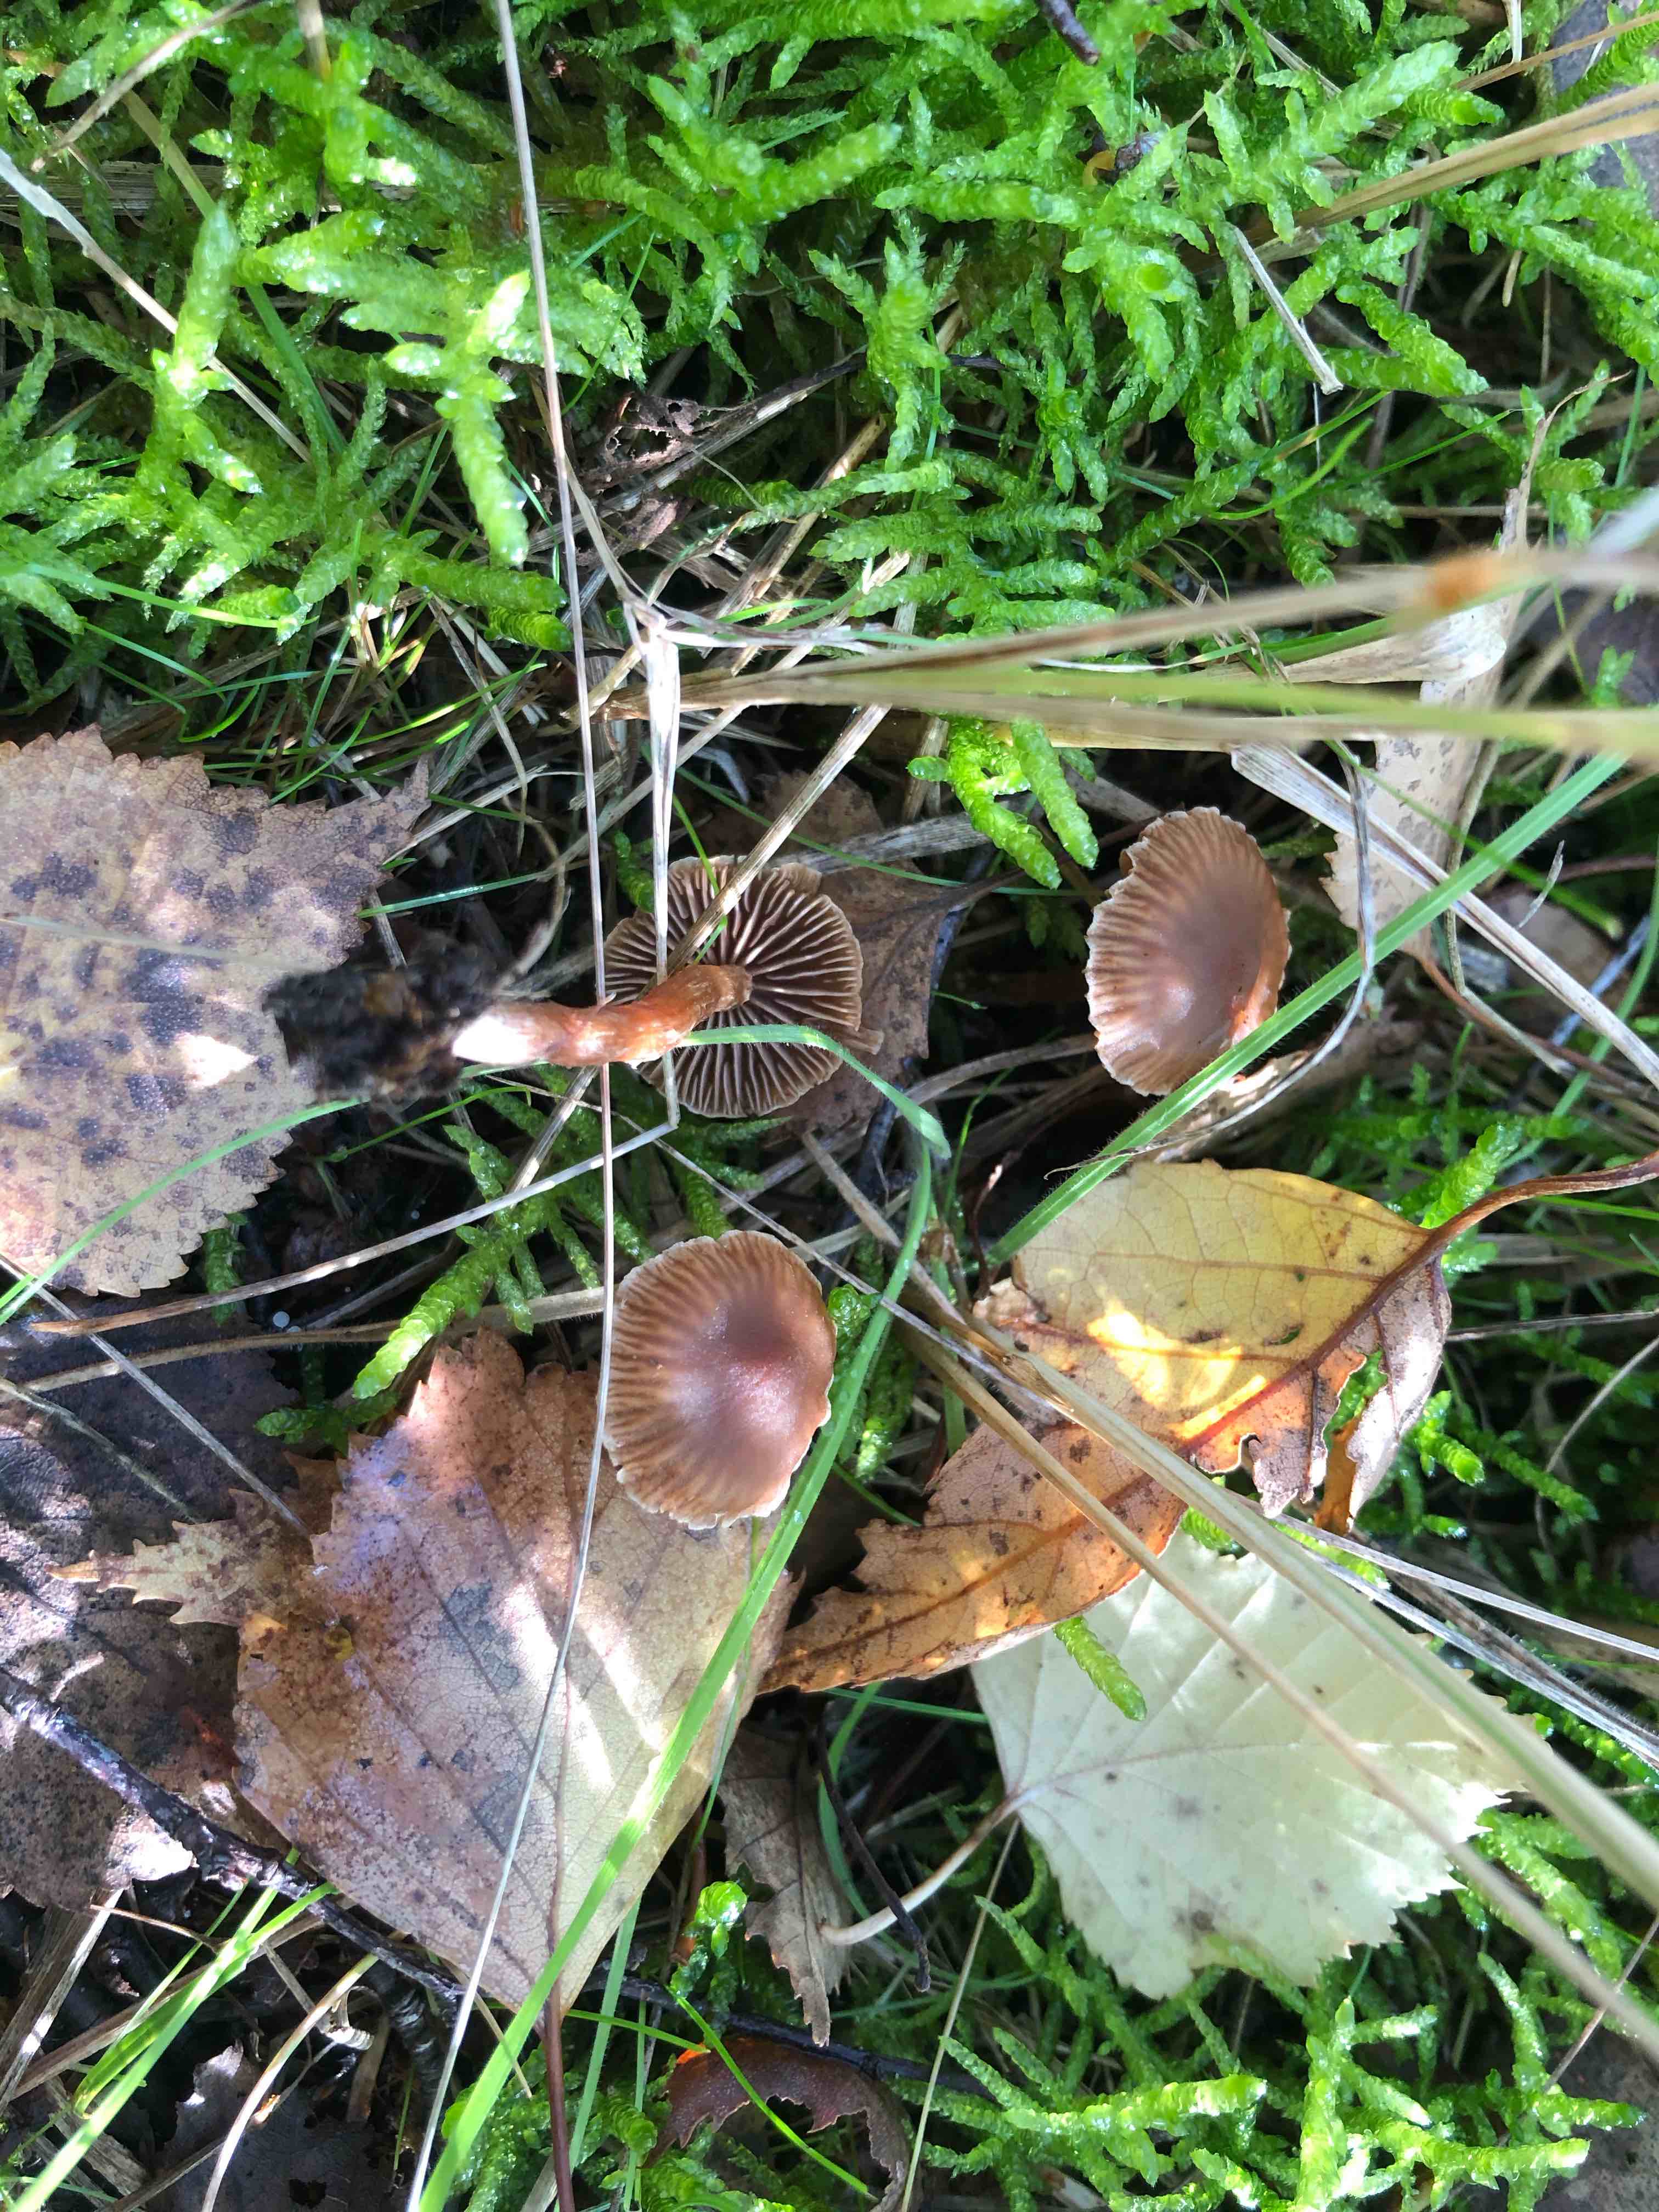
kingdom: Fungi
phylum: Basidiomycota
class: Agaricomycetes
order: Agaricales
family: Cortinariaceae
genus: Cortinarius
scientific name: Cortinarius
